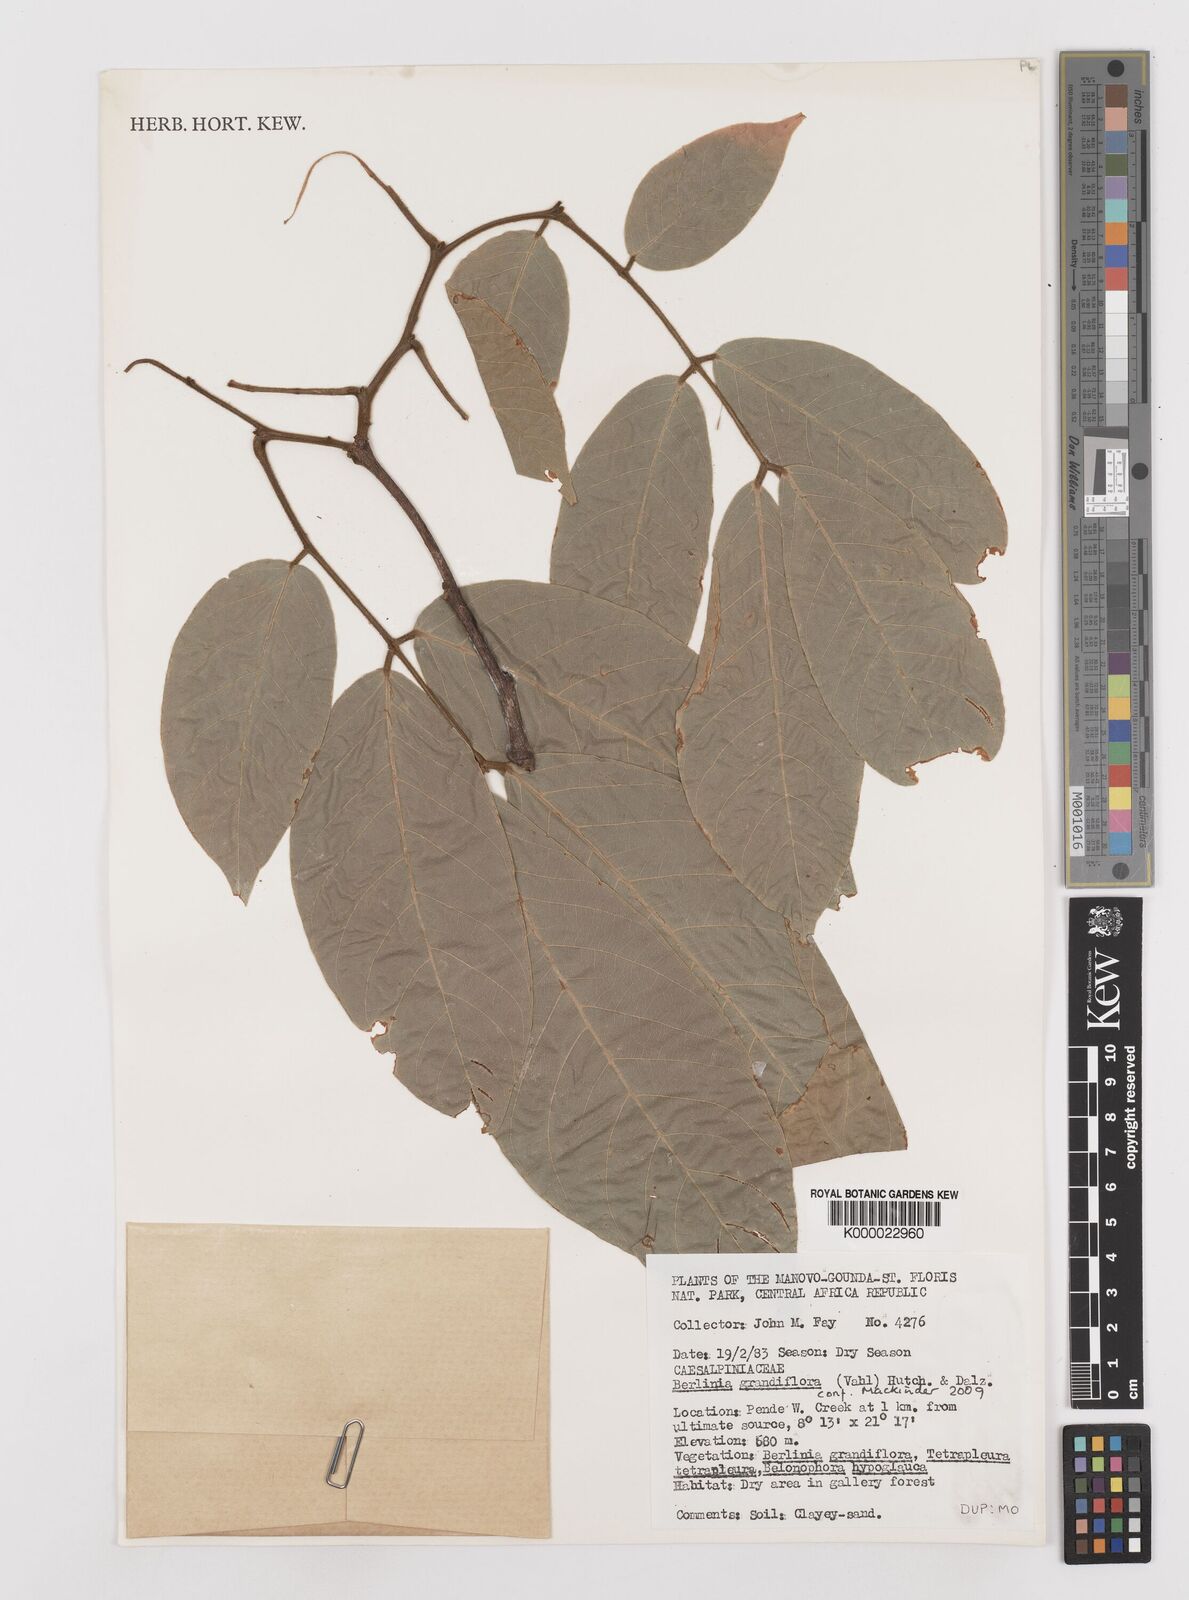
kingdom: Plantae
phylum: Tracheophyta
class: Magnoliopsida
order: Fabales
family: Fabaceae
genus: Berlinia
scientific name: Berlinia grandiflora
